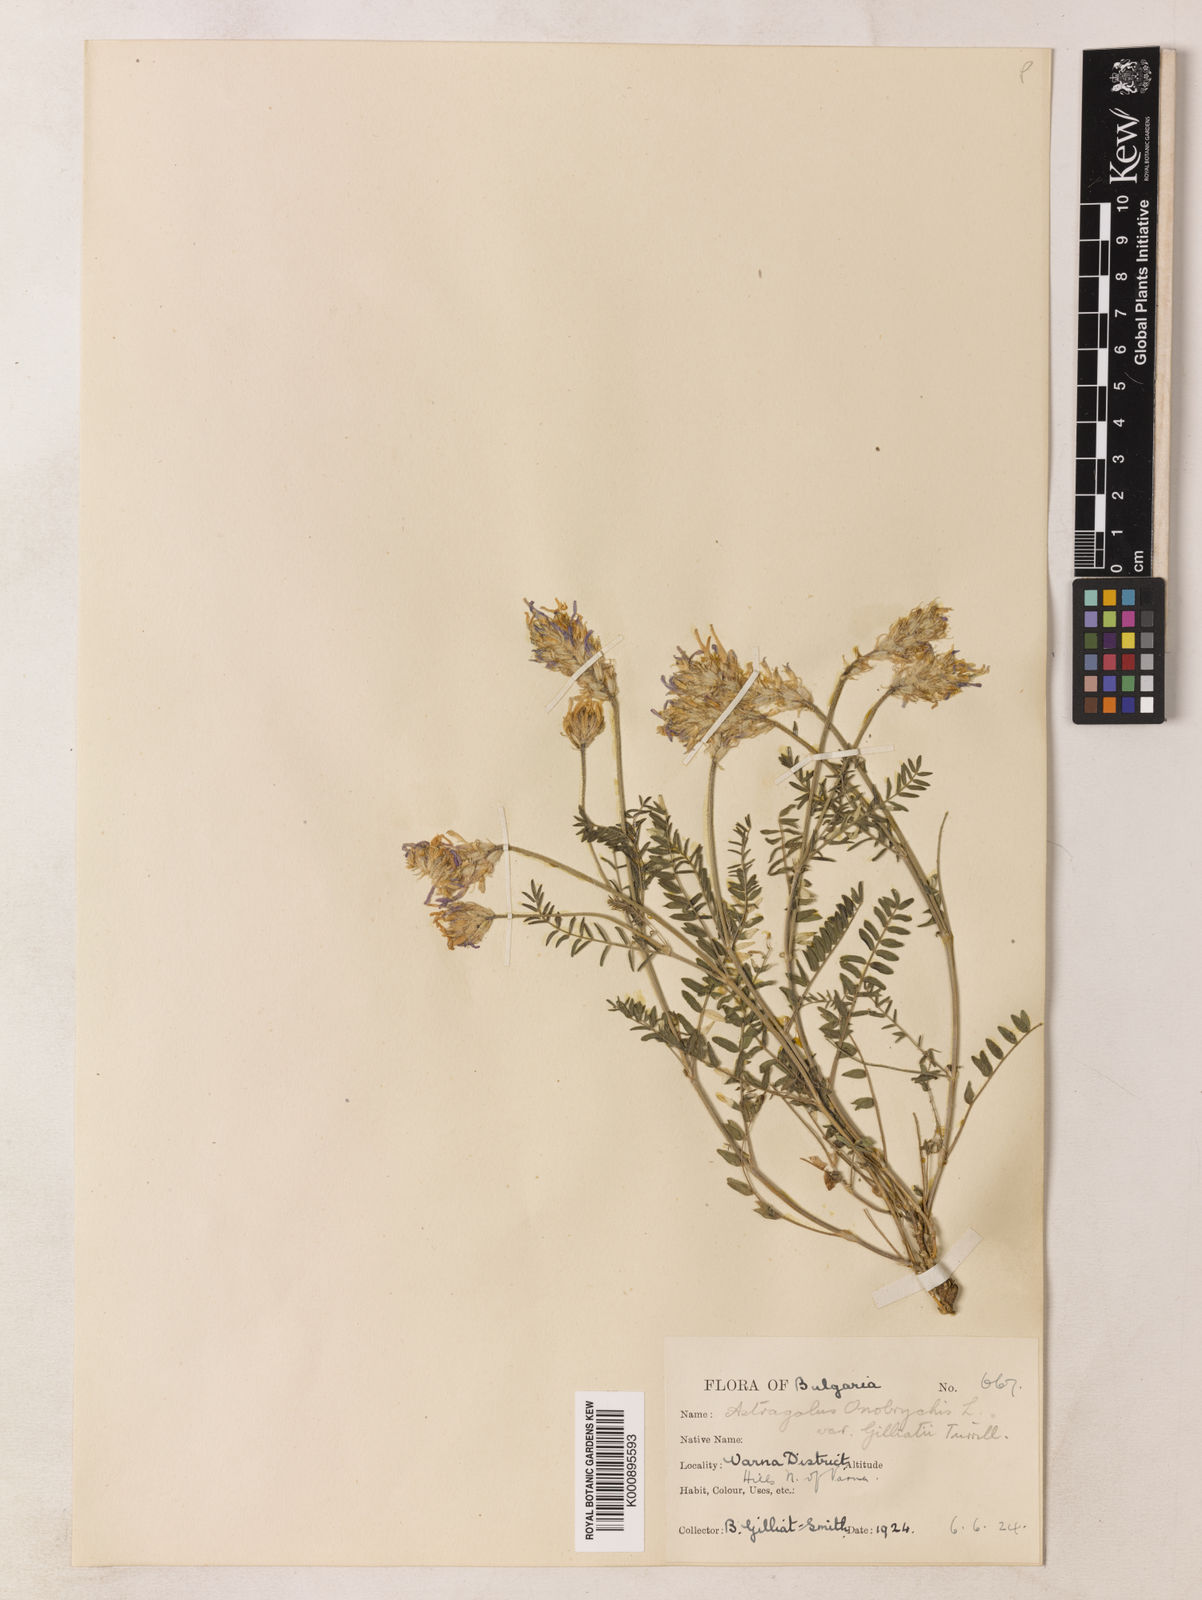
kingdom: Plantae
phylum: Tracheophyta
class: Magnoliopsida
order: Fabales
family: Fabaceae
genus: Astragalus
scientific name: Astragalus
